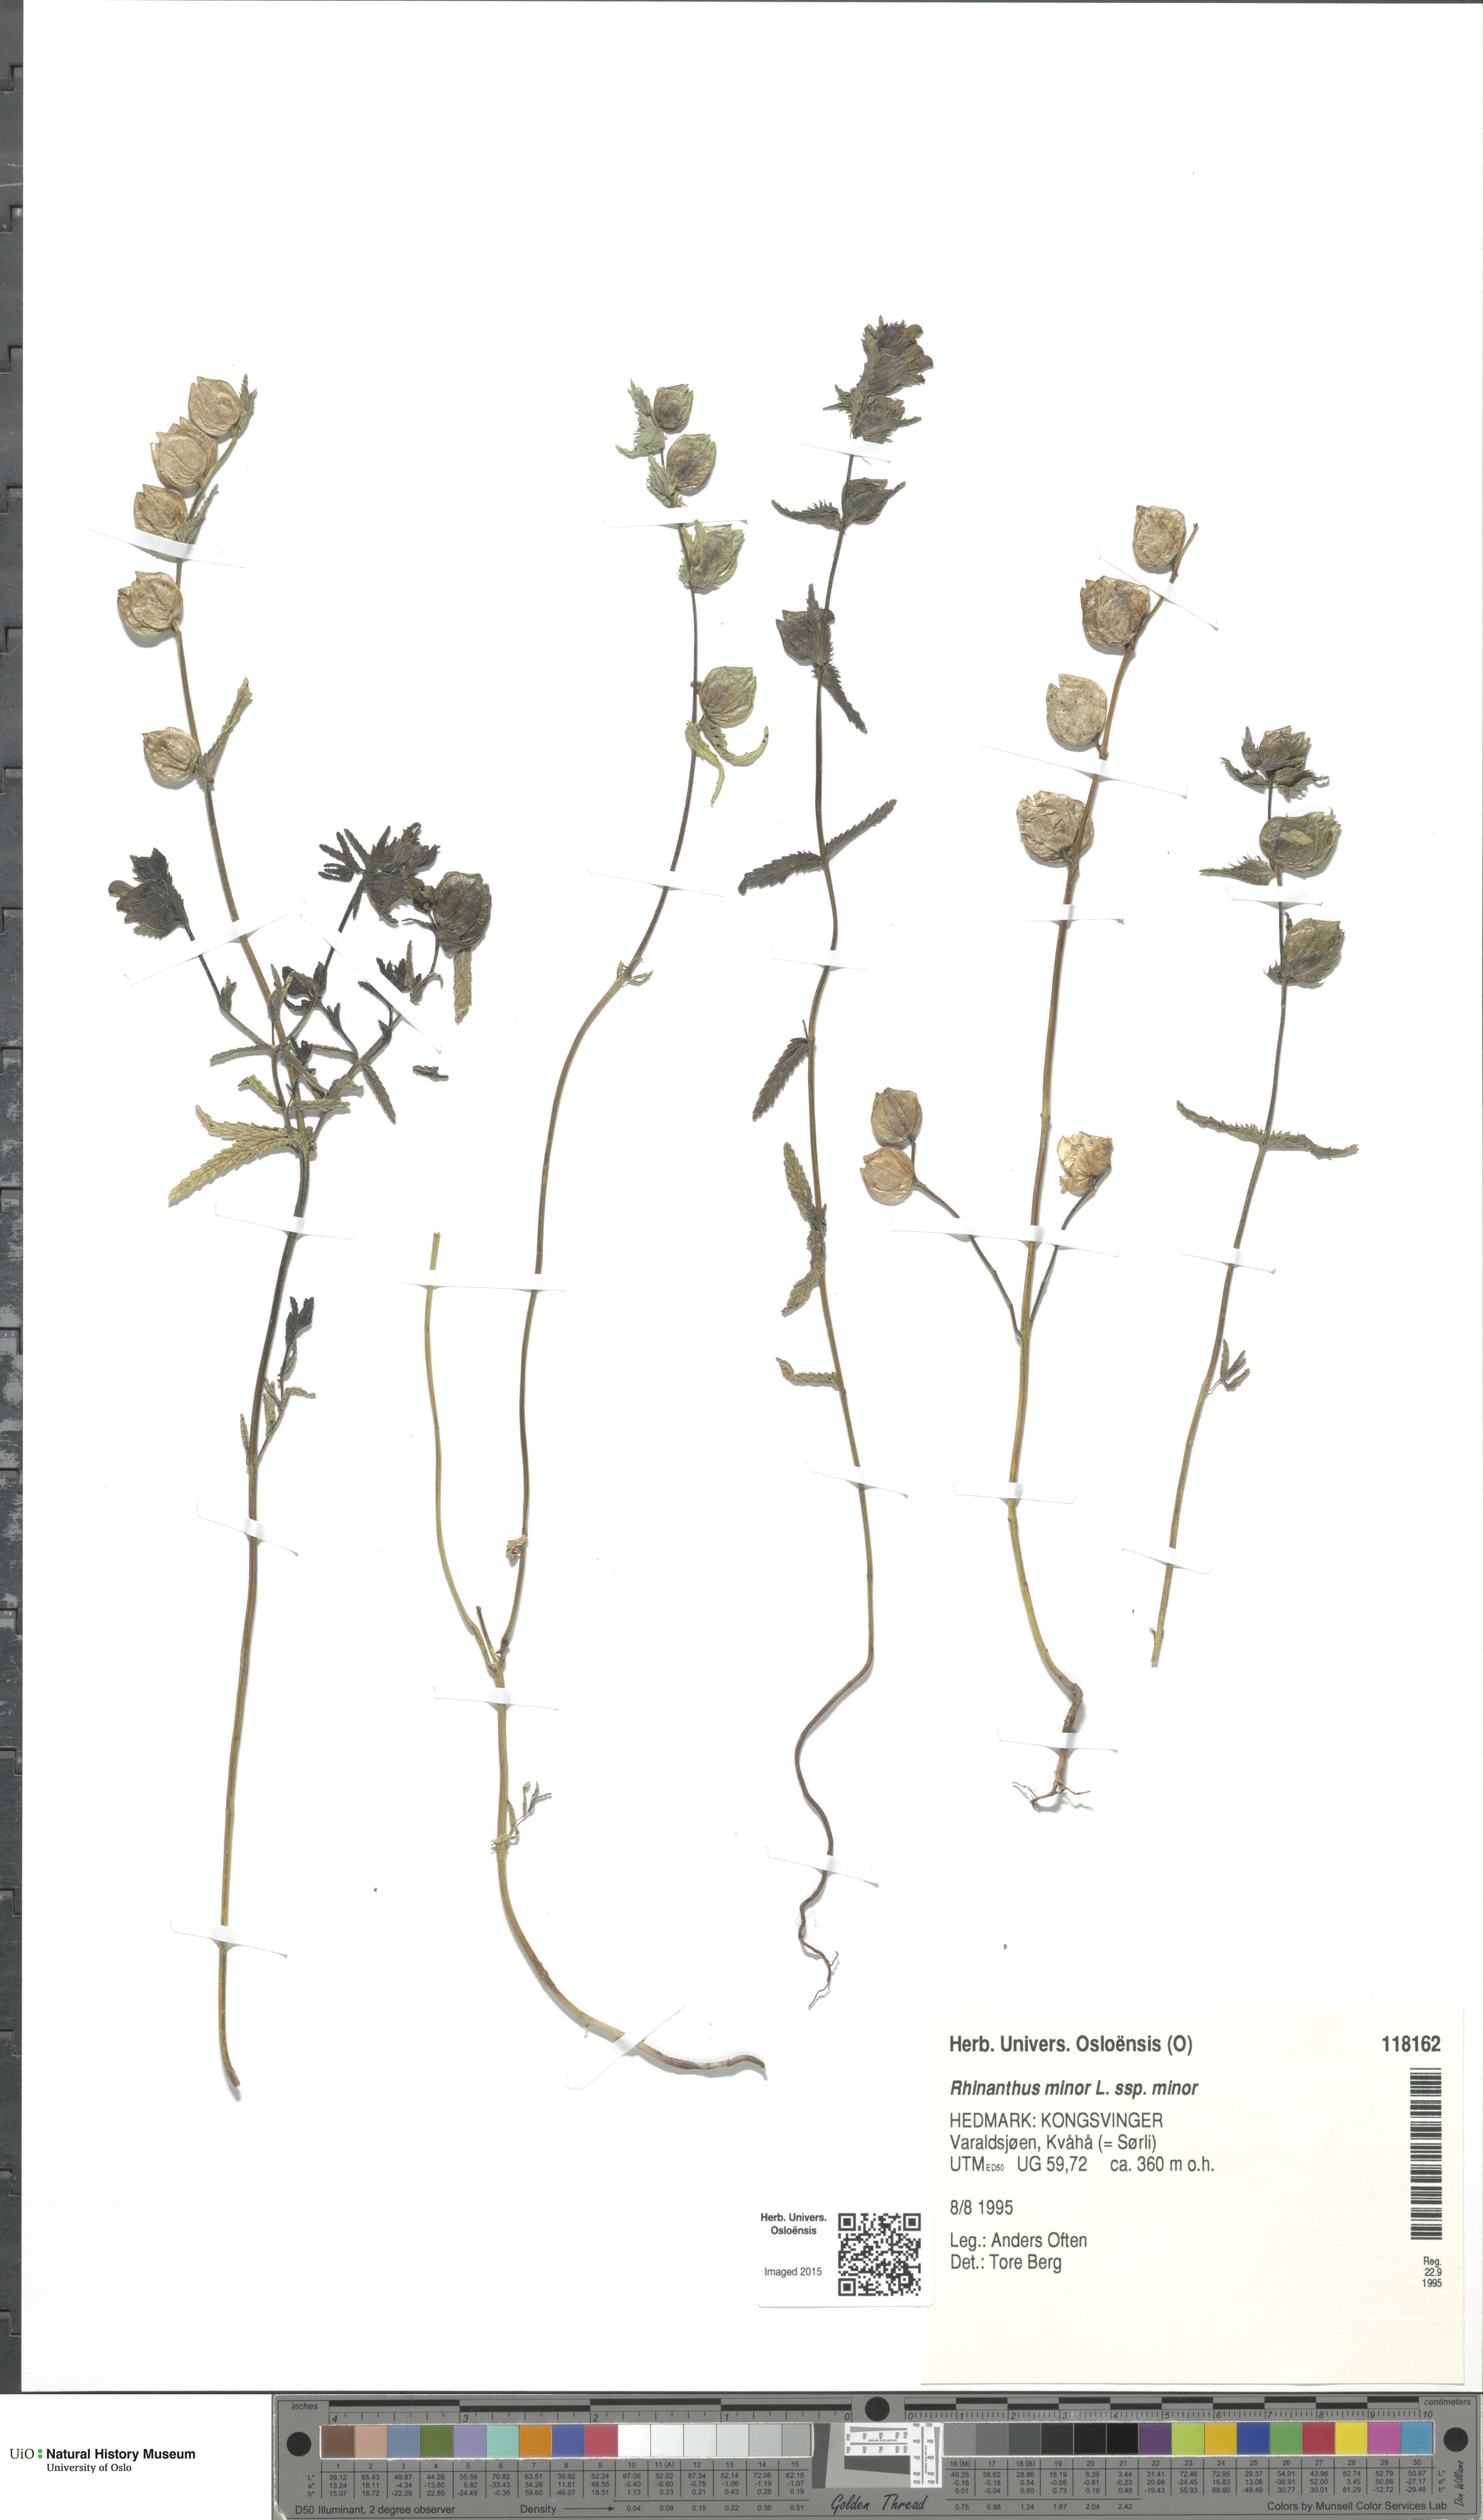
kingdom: Plantae
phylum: Tracheophyta
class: Magnoliopsida
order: Lamiales
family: Orobanchaceae
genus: Rhinanthus
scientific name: Rhinanthus minor
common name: Yellow-rattle
